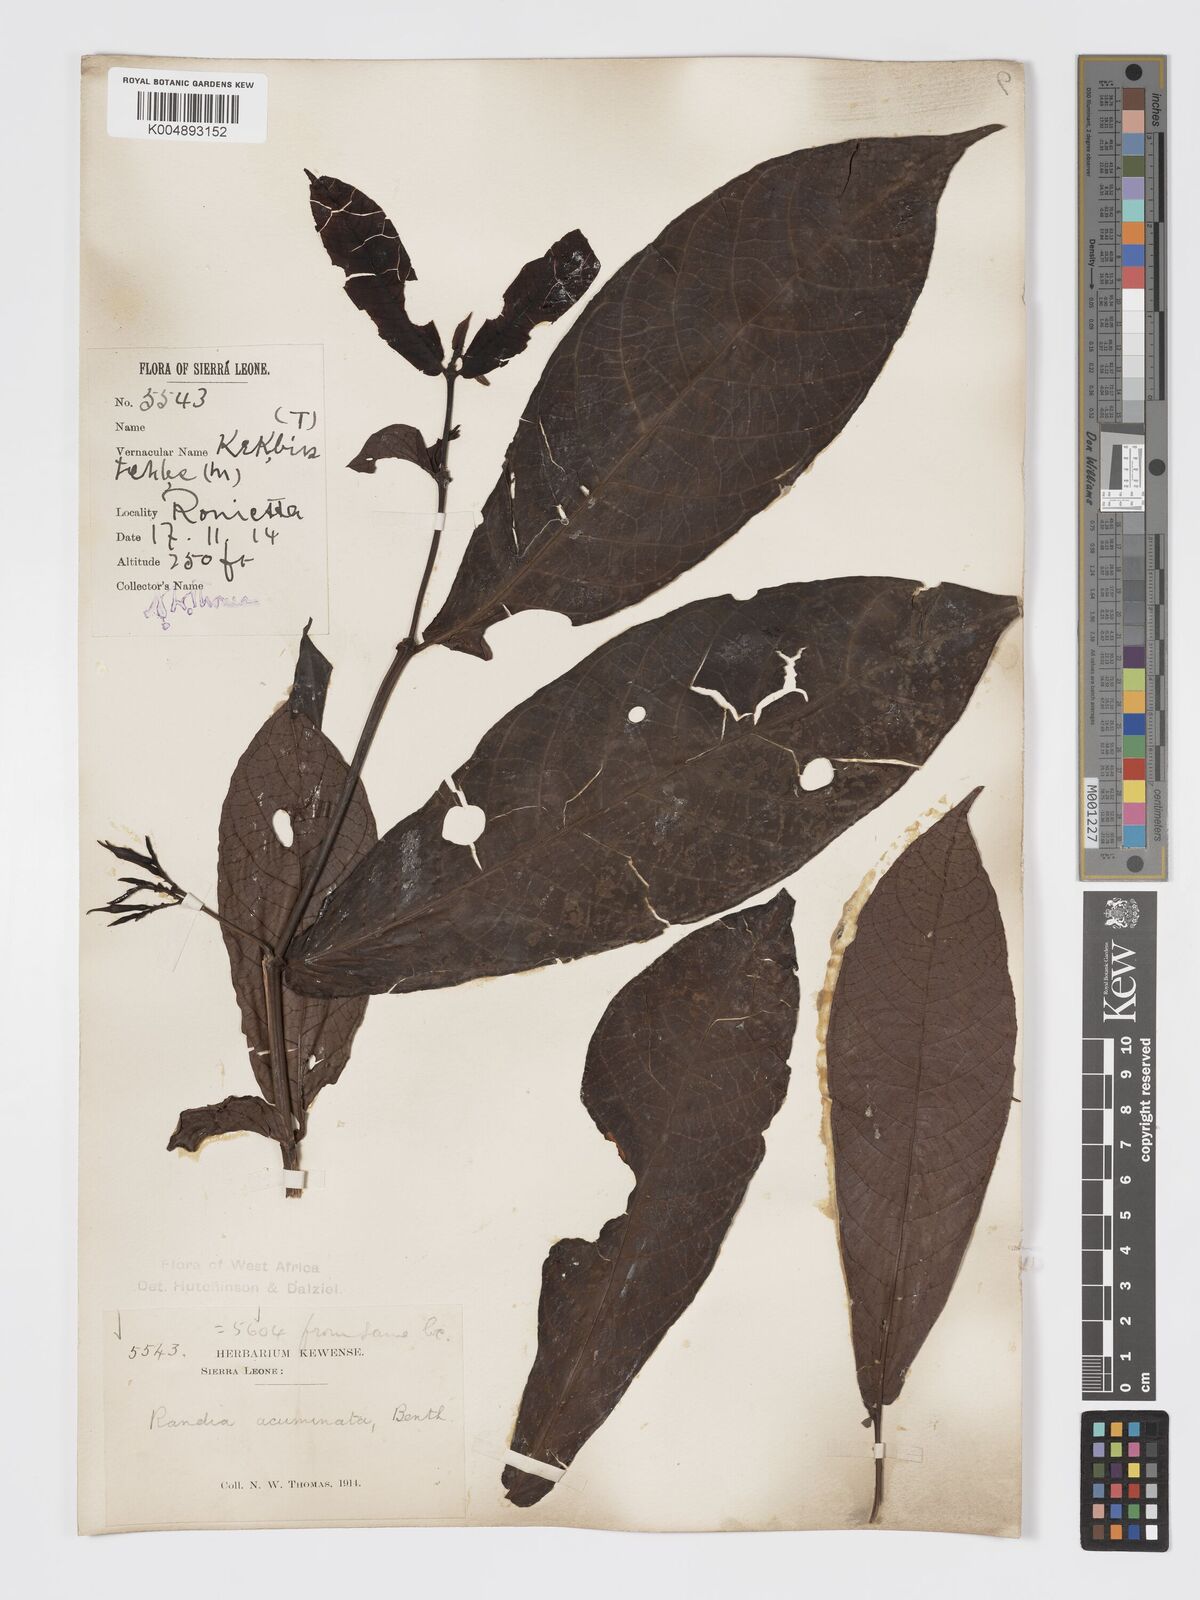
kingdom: Plantae
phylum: Tracheophyta
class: Magnoliopsida
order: Gentianales
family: Rubiaceae
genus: Massularia
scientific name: Massularia acuminata
